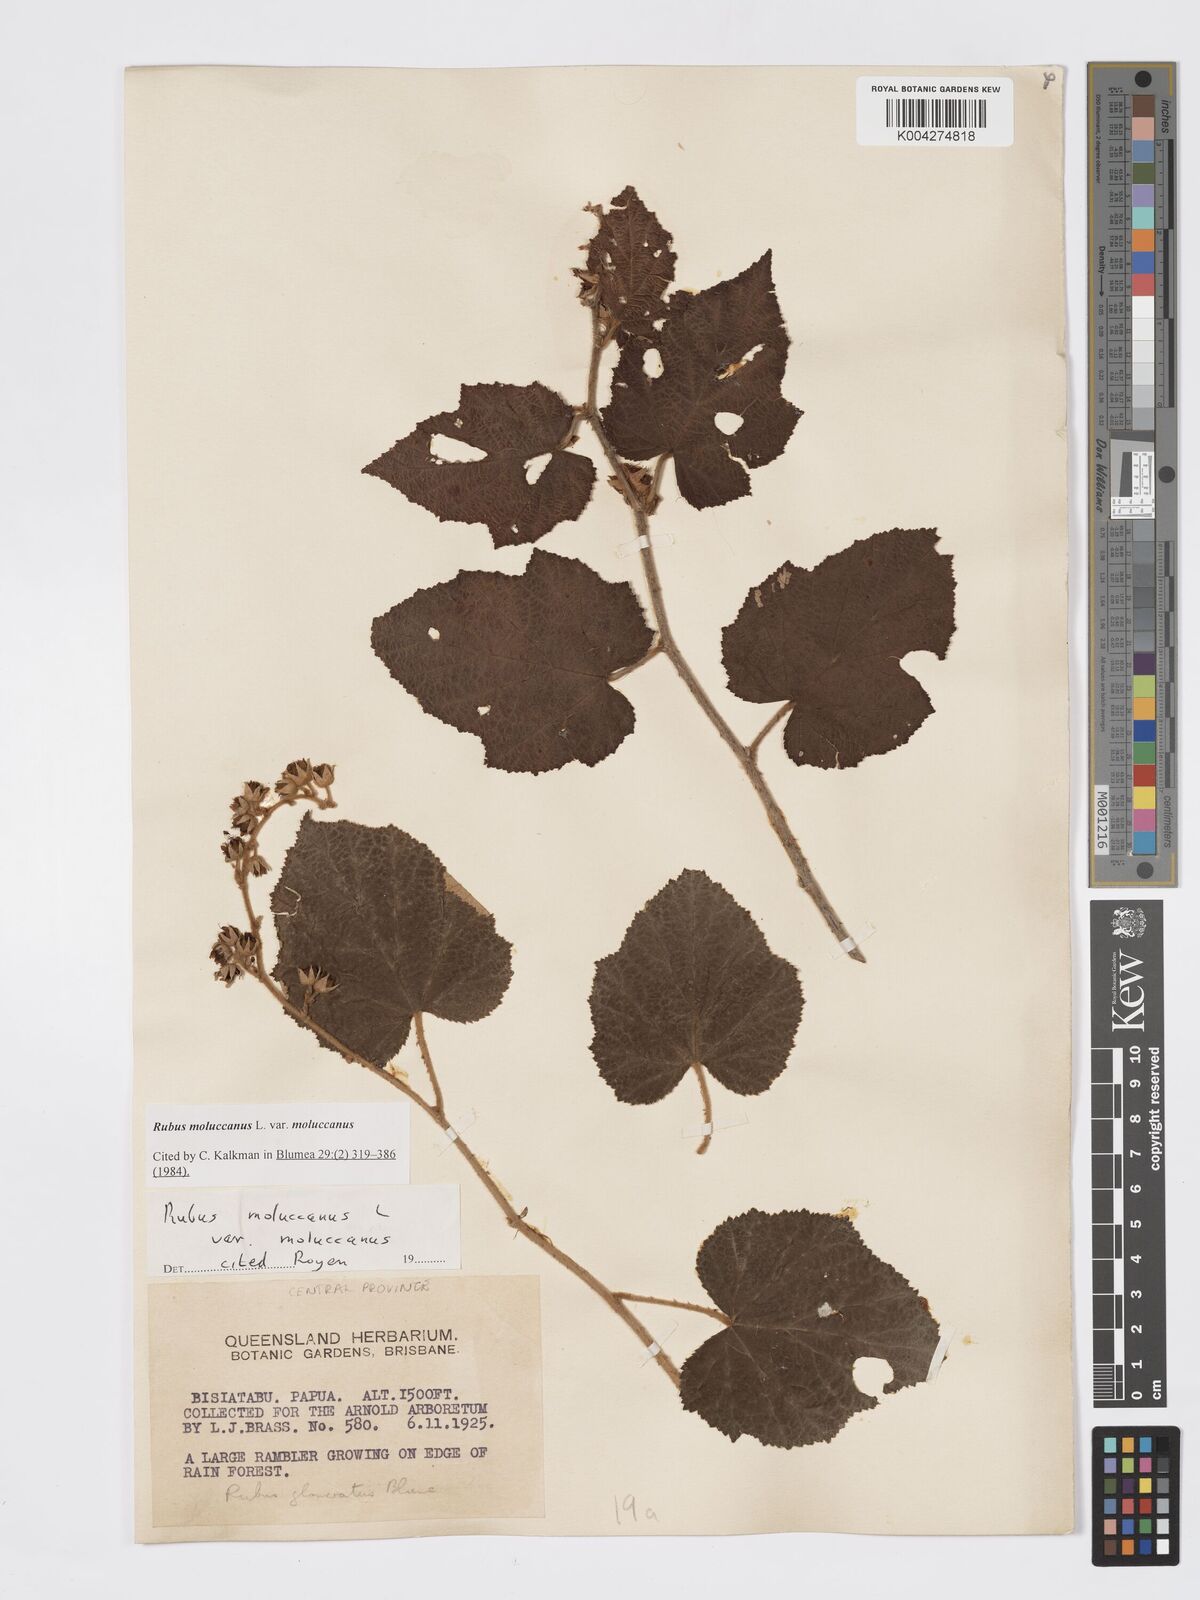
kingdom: Plantae
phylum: Tracheophyta
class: Magnoliopsida
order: Rosales
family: Rosaceae
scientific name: Rosaceae
